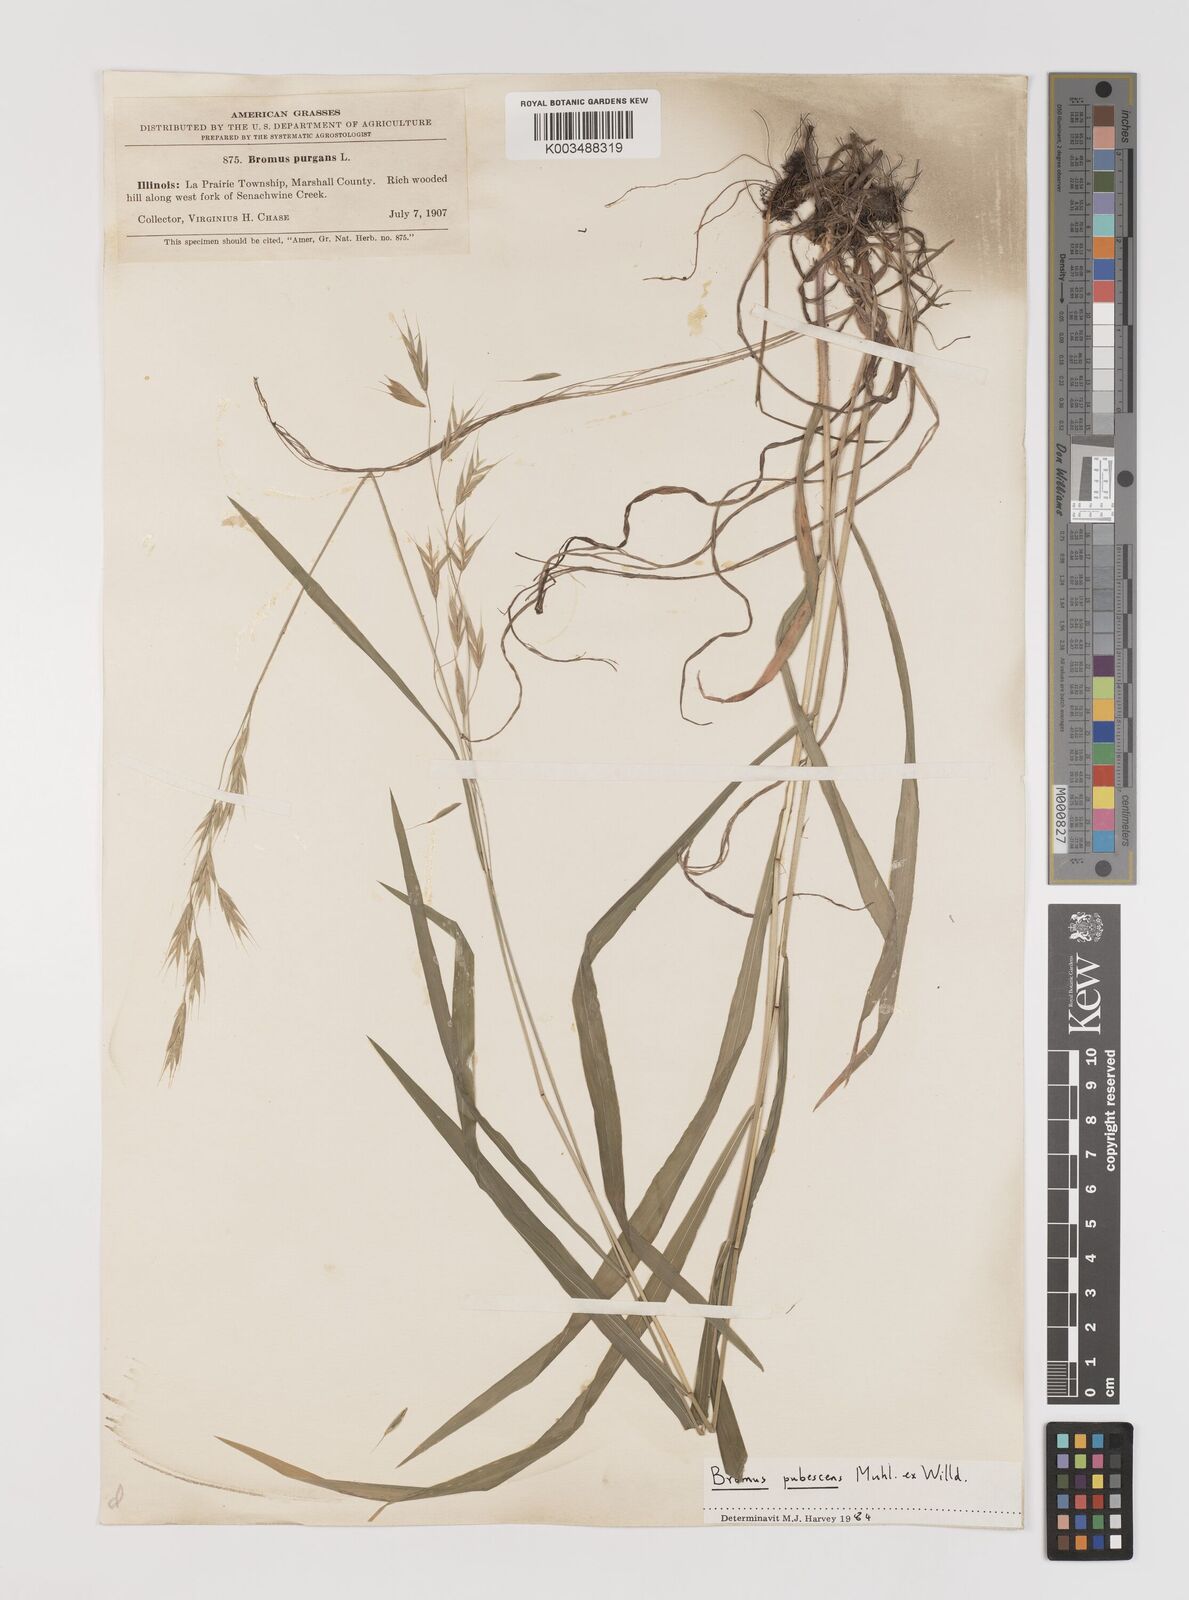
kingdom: Plantae
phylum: Tracheophyta
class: Liliopsida
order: Poales
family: Poaceae
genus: Bromus
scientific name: Bromus pubescens
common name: Hairy wood brome grass
